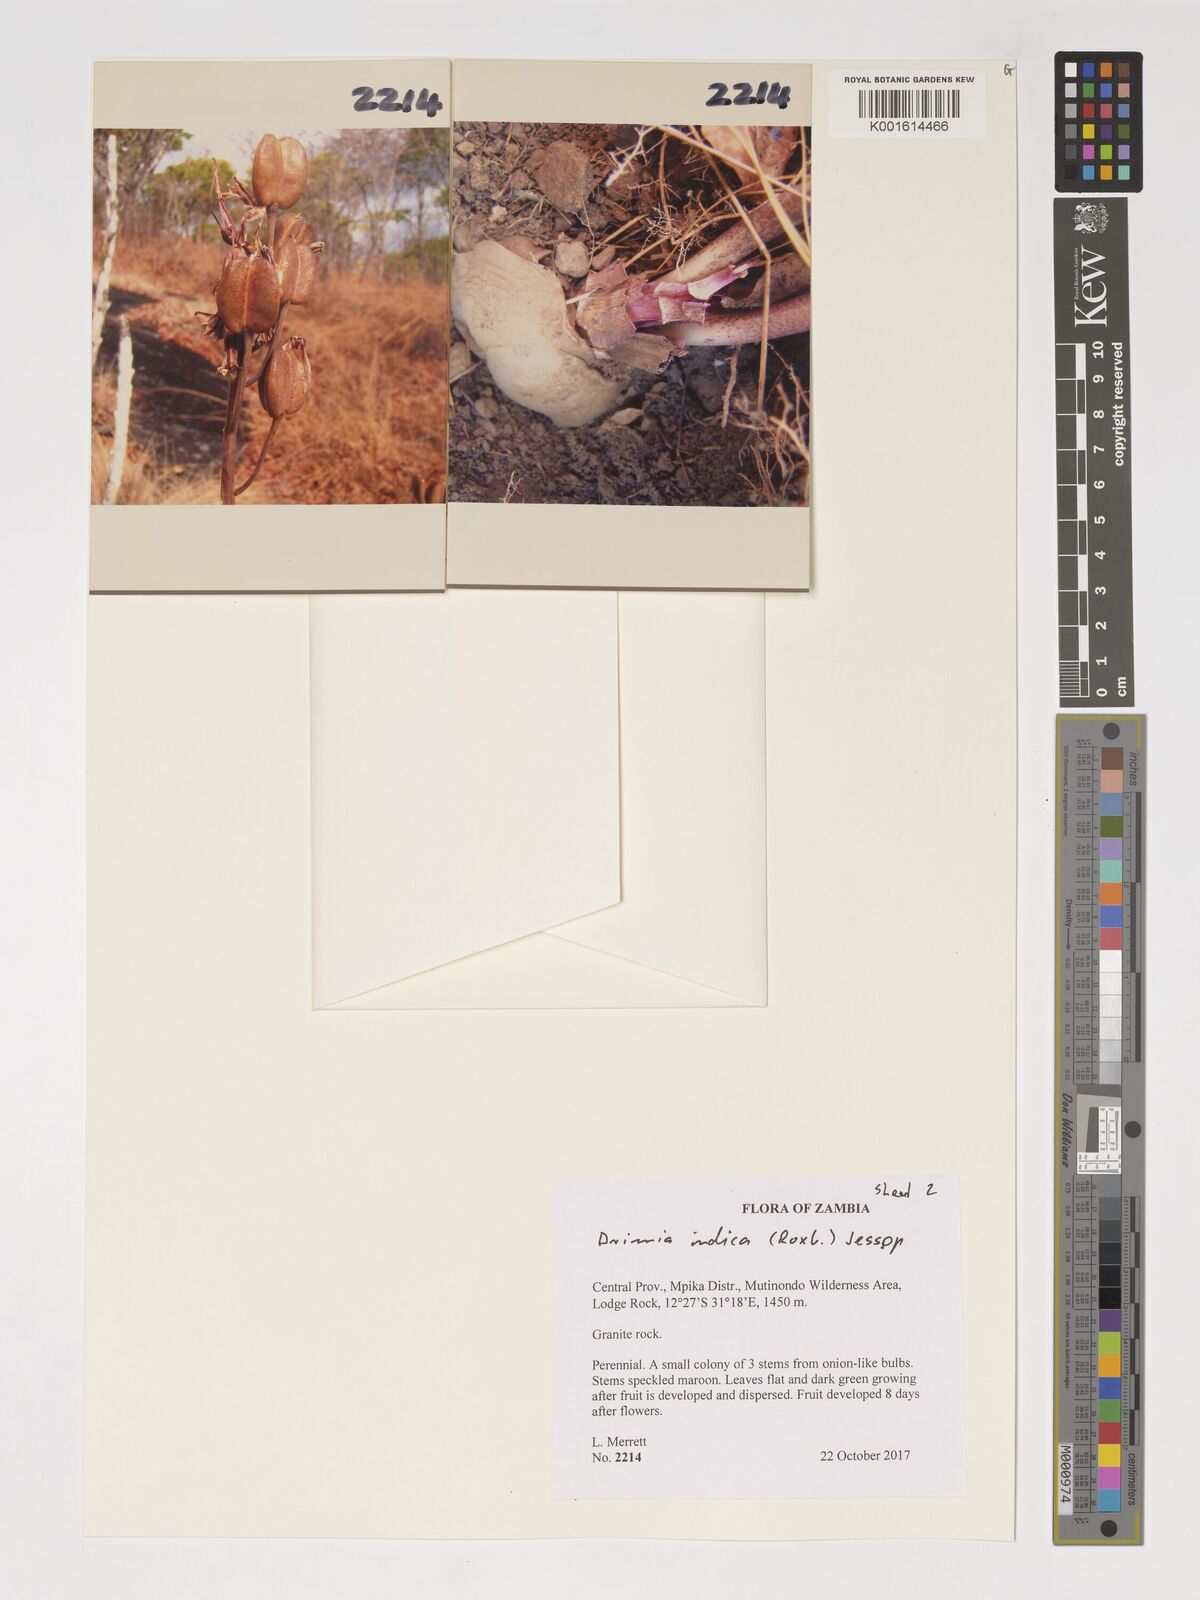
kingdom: Plantae
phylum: Tracheophyta
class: Liliopsida
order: Asparagales
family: Asparagaceae
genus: Drimia
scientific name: Drimia indica
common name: Indian-squill
